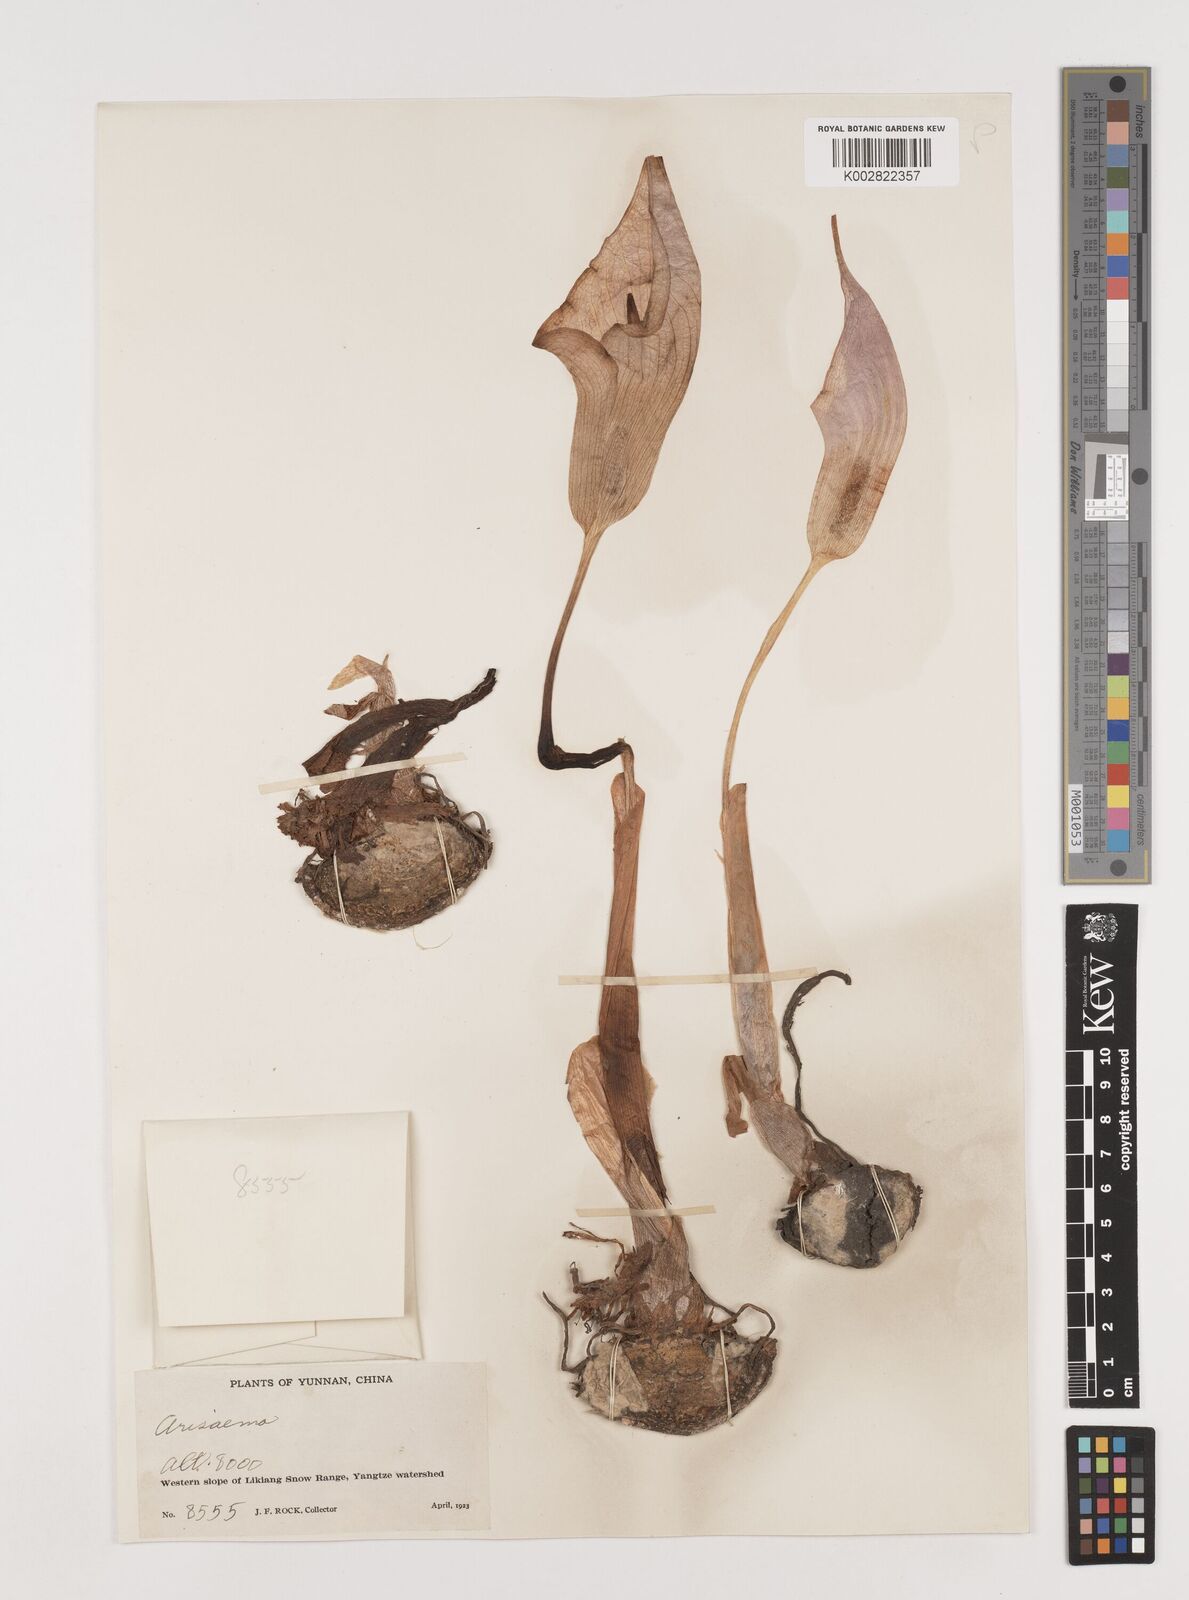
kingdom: Plantae
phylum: Tracheophyta
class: Liliopsida
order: Alismatales
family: Araceae
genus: Arisaema
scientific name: Arisaema candidissimum
